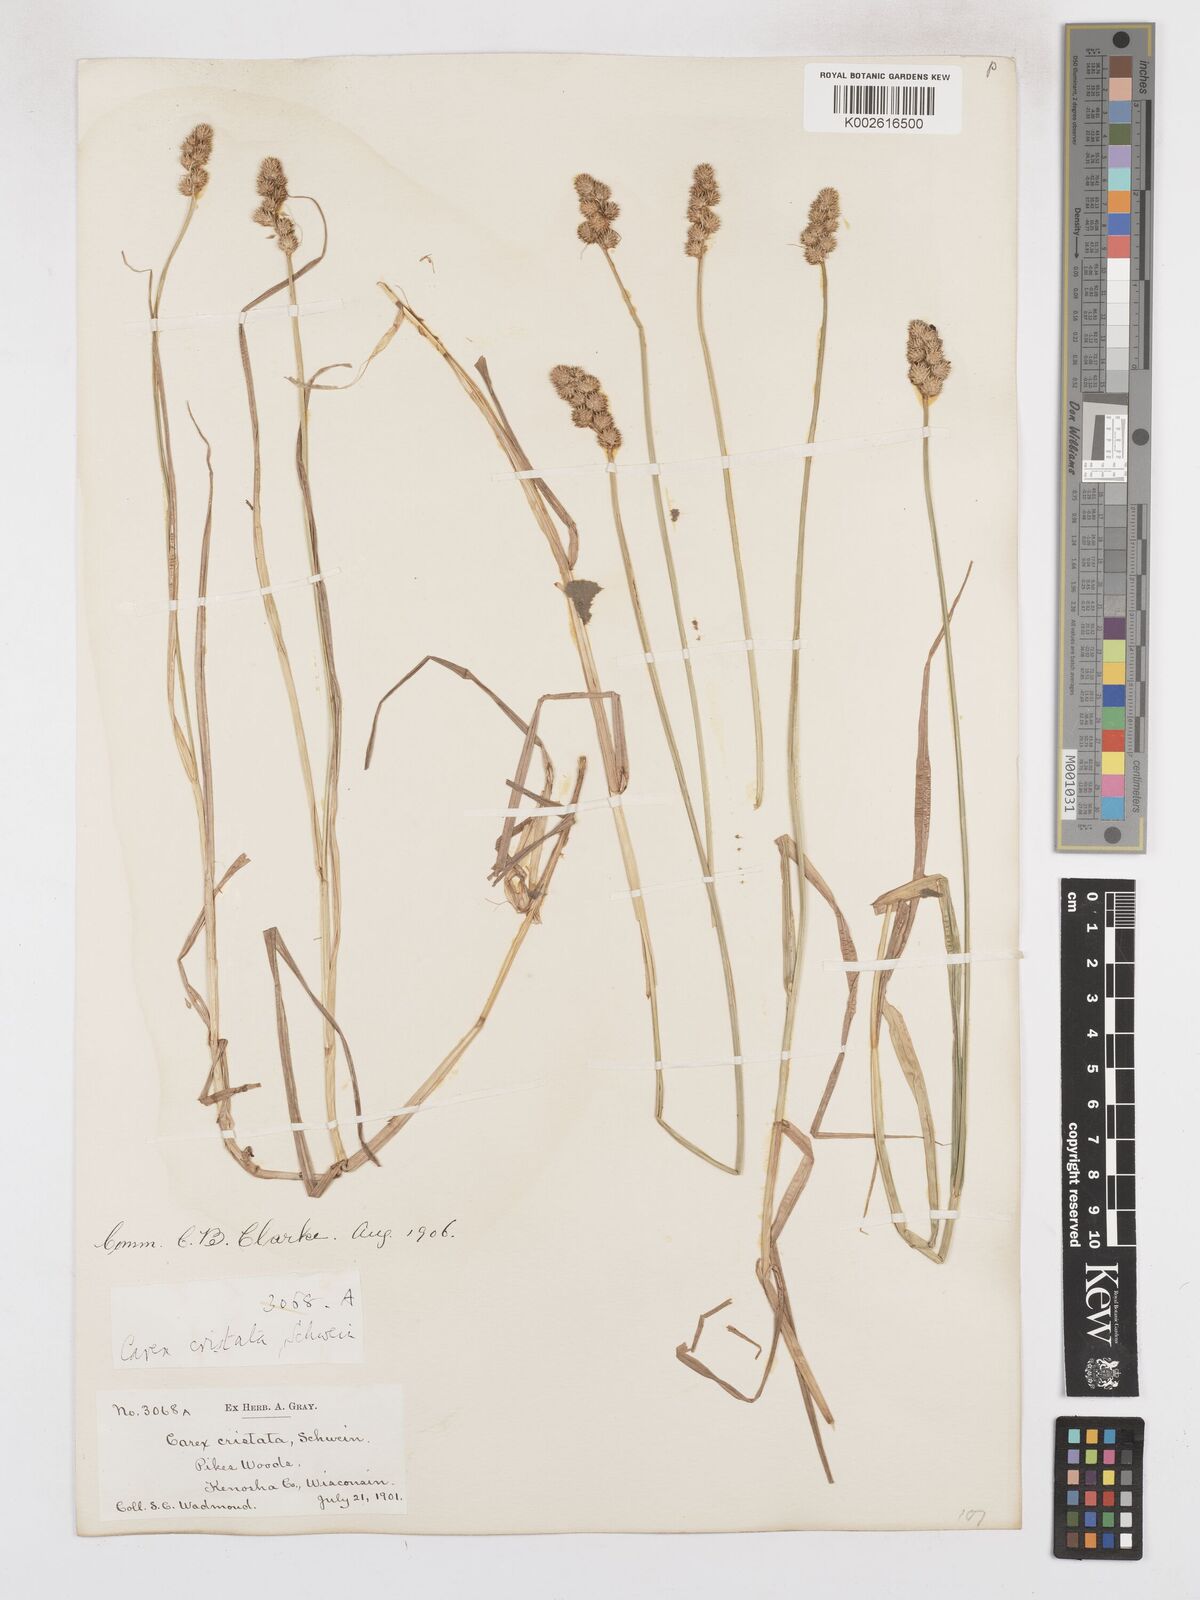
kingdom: Plantae
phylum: Tracheophyta
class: Liliopsida
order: Poales
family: Cyperaceae
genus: Carex
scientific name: Carex cristatella
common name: Crested oval sedge
